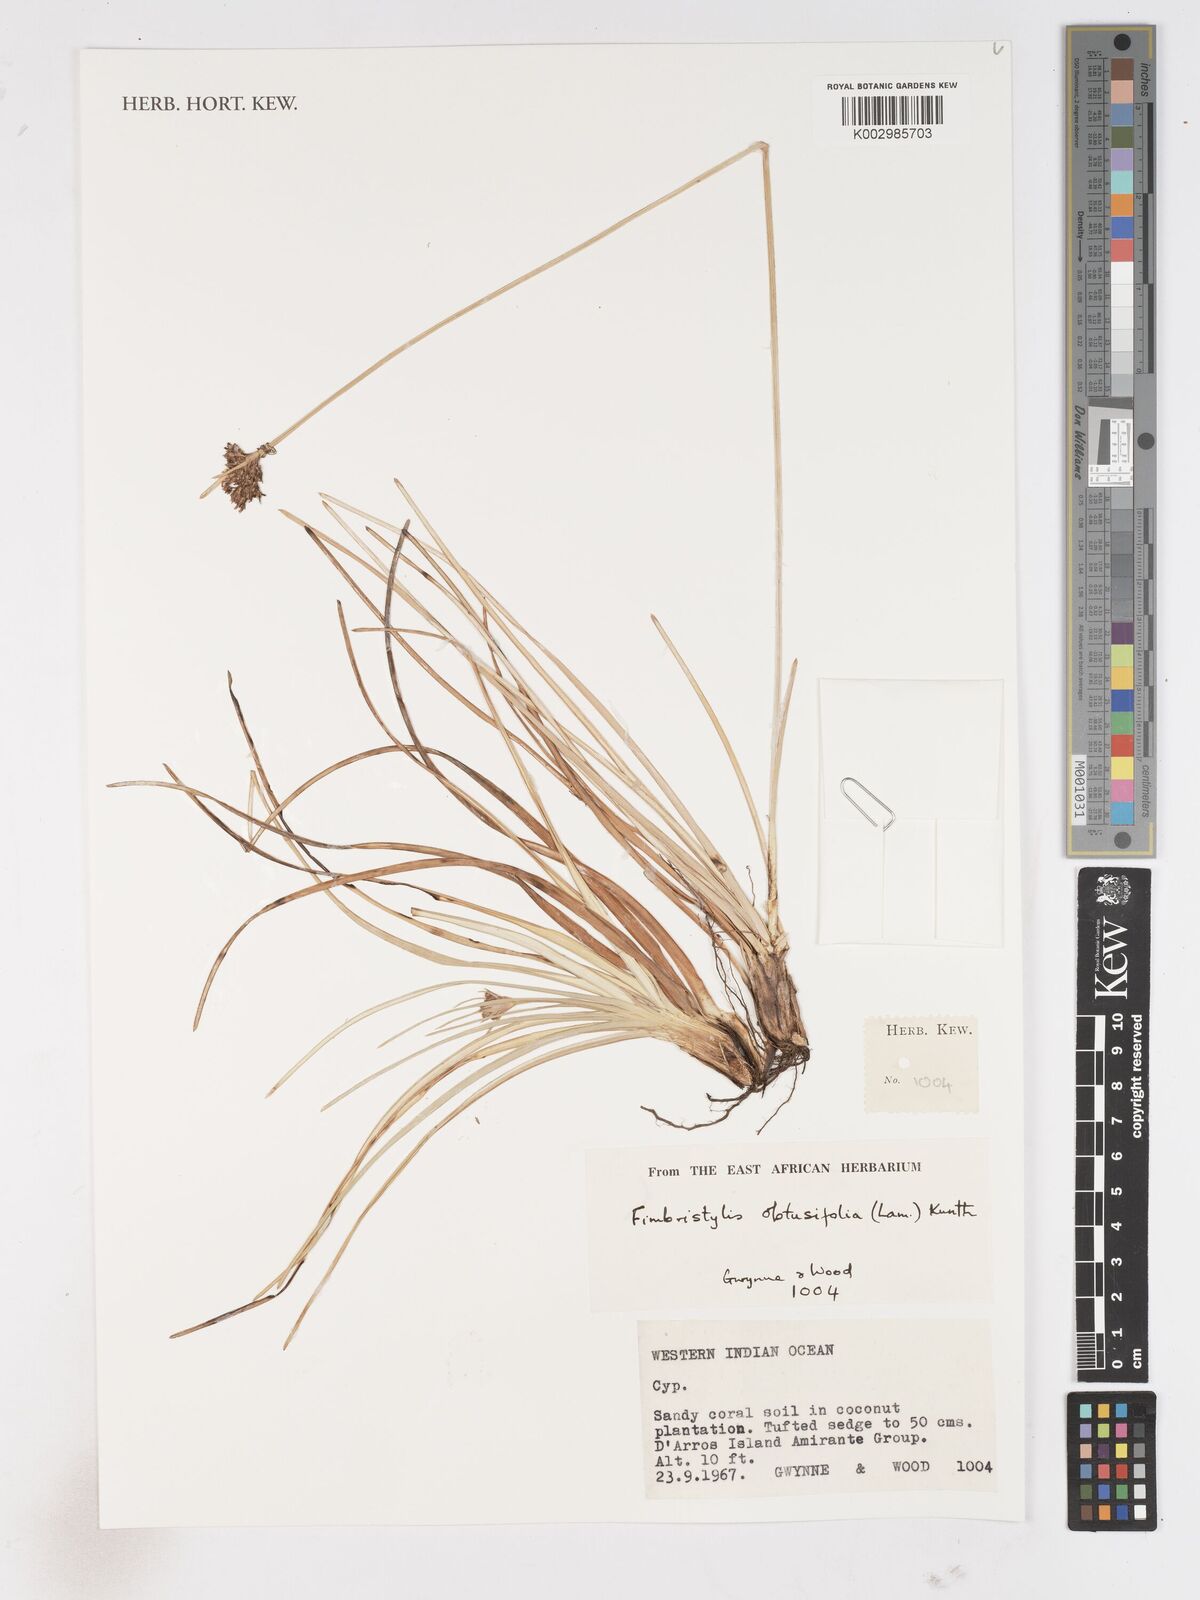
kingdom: Plantae
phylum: Tracheophyta
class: Liliopsida
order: Poales
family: Cyperaceae
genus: Fimbristylis
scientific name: Fimbristylis cymosa
